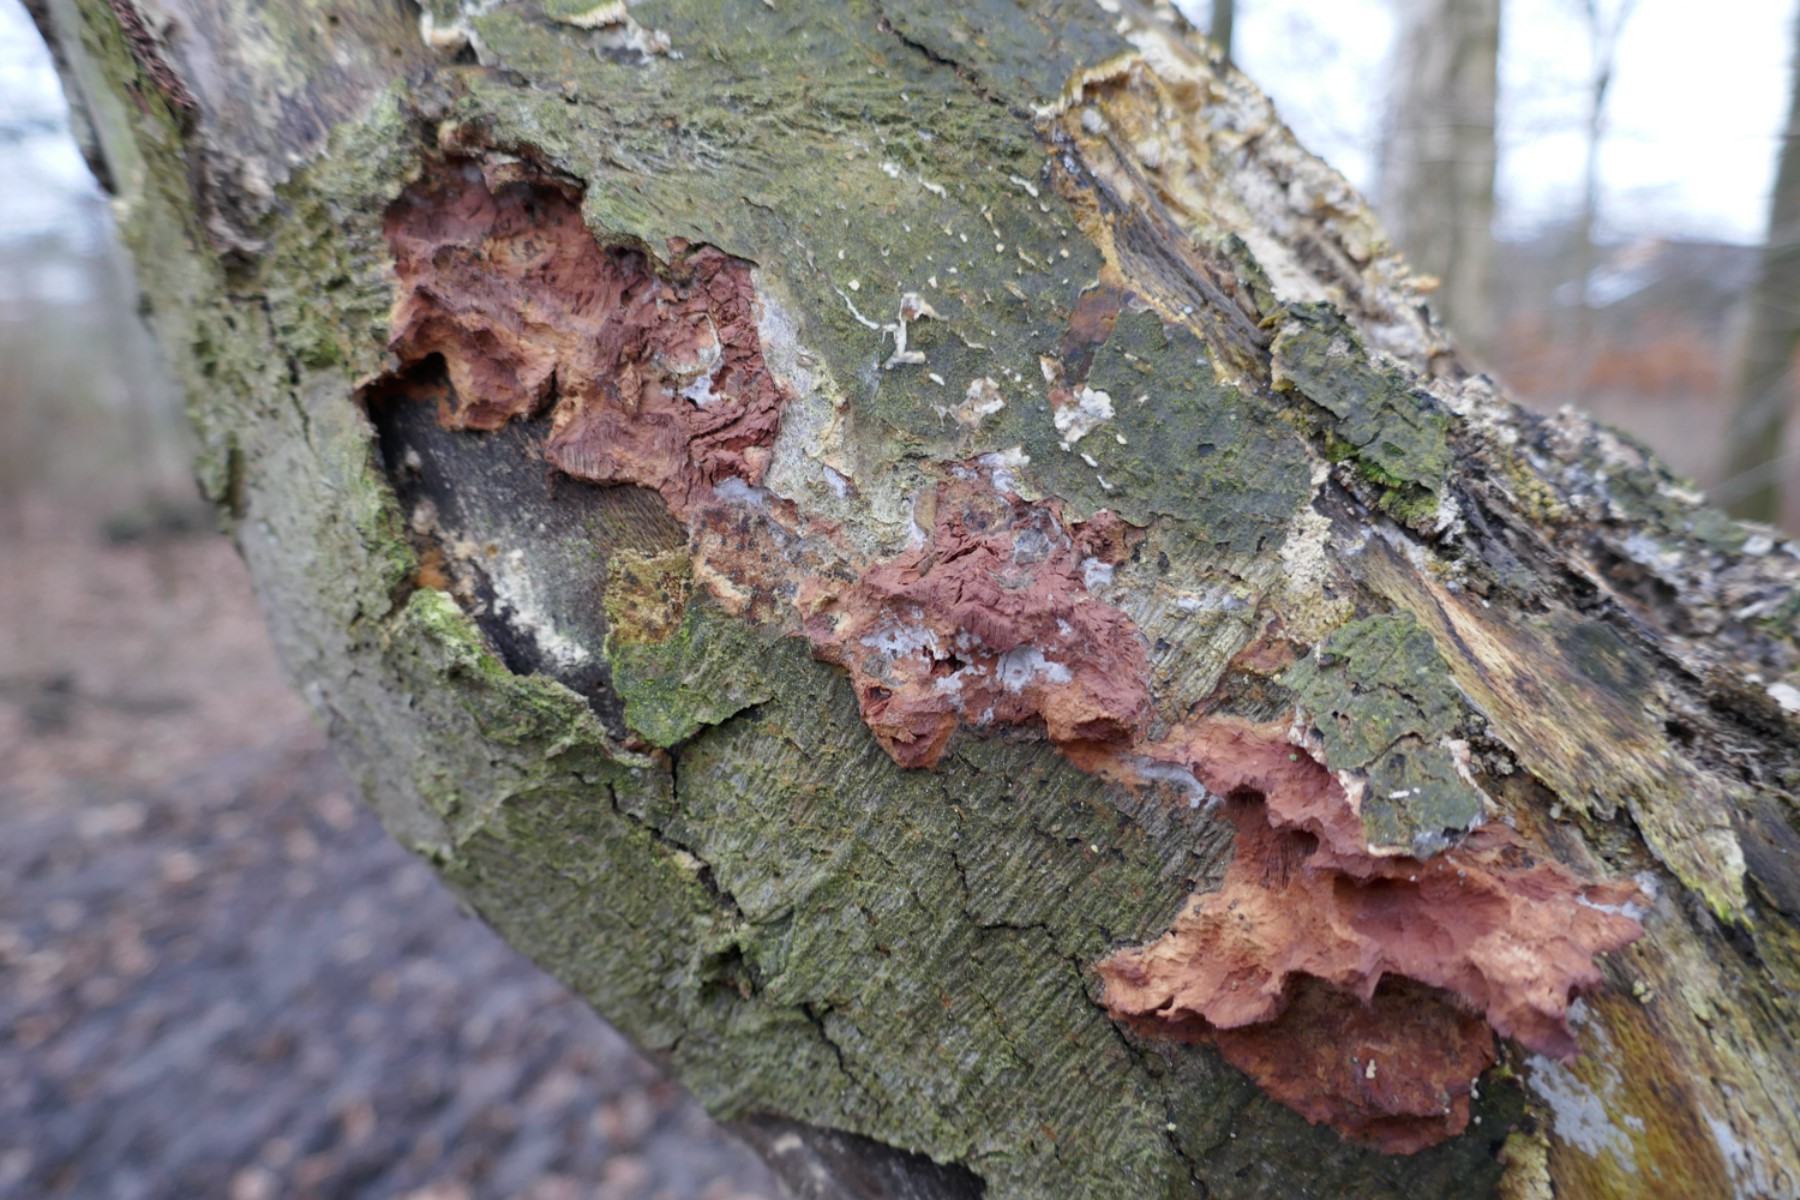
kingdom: Fungi
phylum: Basidiomycota
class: Agaricomycetes
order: Polyporales
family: Phanerochaetaceae
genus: Hapalopilus
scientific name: Hapalopilus rutilans
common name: rødlig okkerporesvamp
